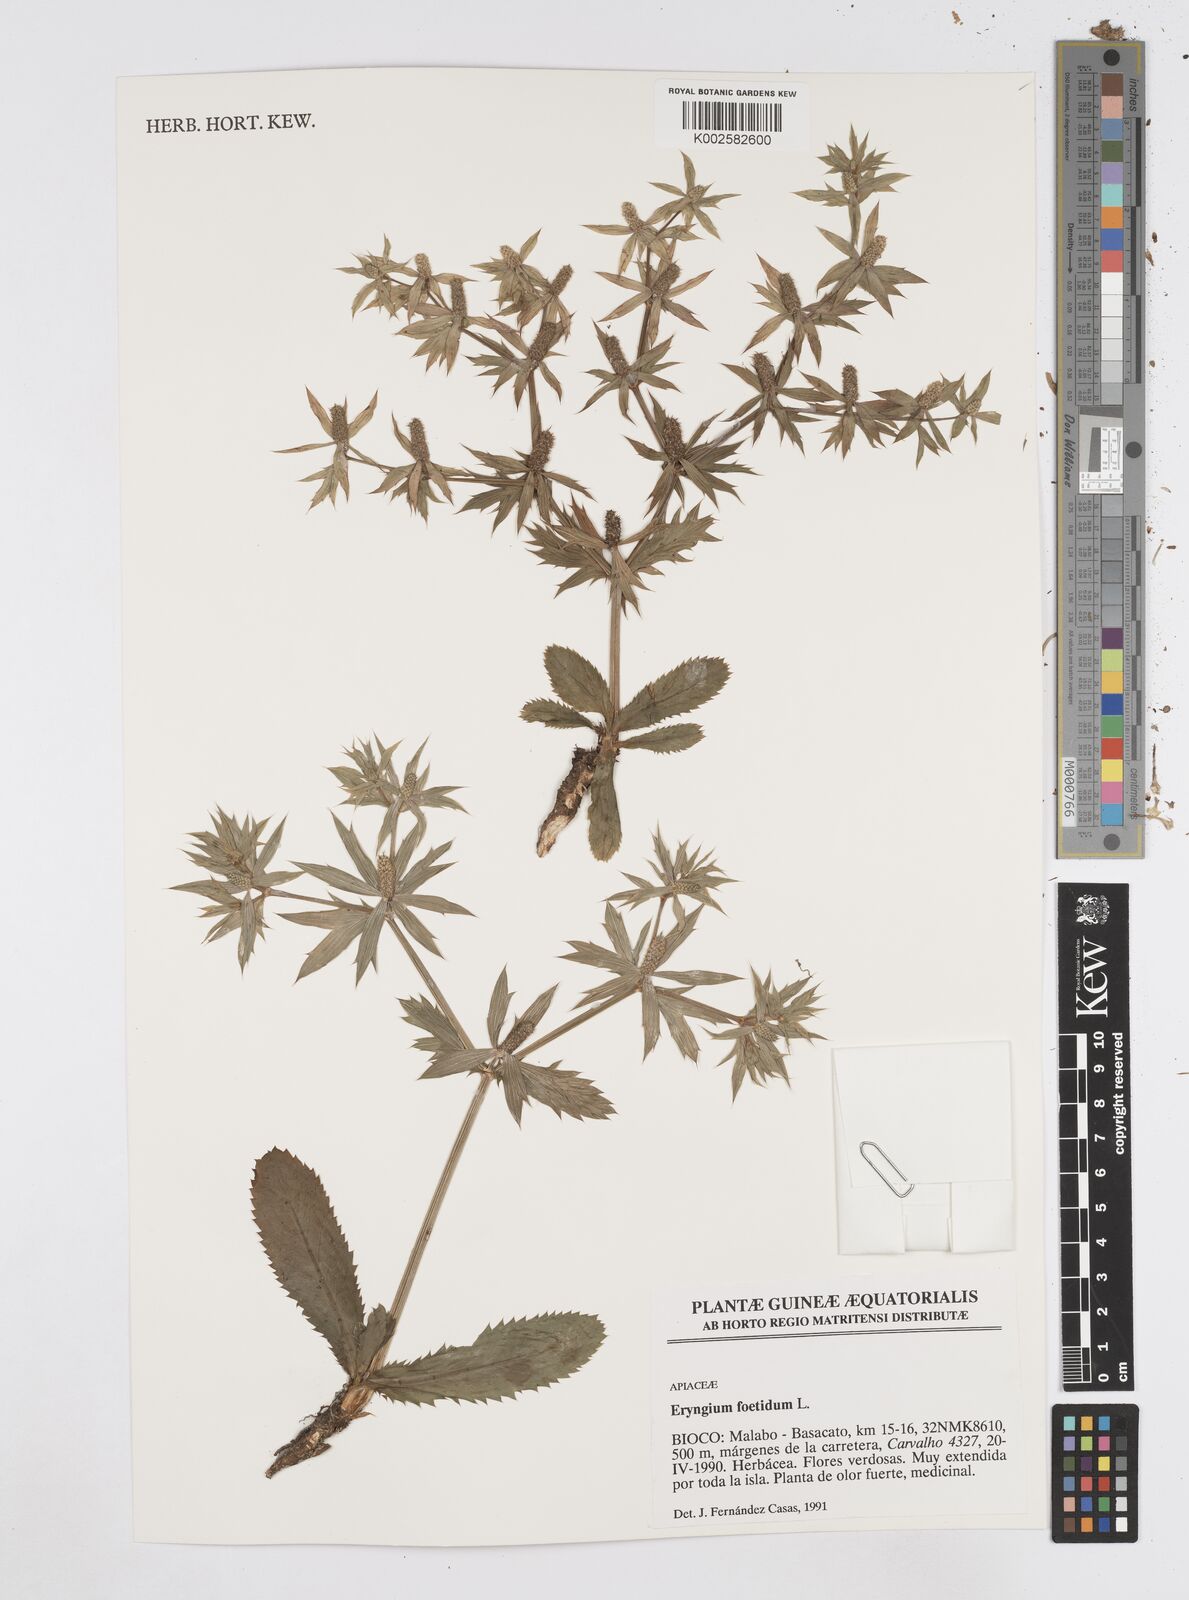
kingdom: Plantae
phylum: Tracheophyta
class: Magnoliopsida
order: Apiales
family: Apiaceae
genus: Eryngium
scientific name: Eryngium foetidum
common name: Fitweed
